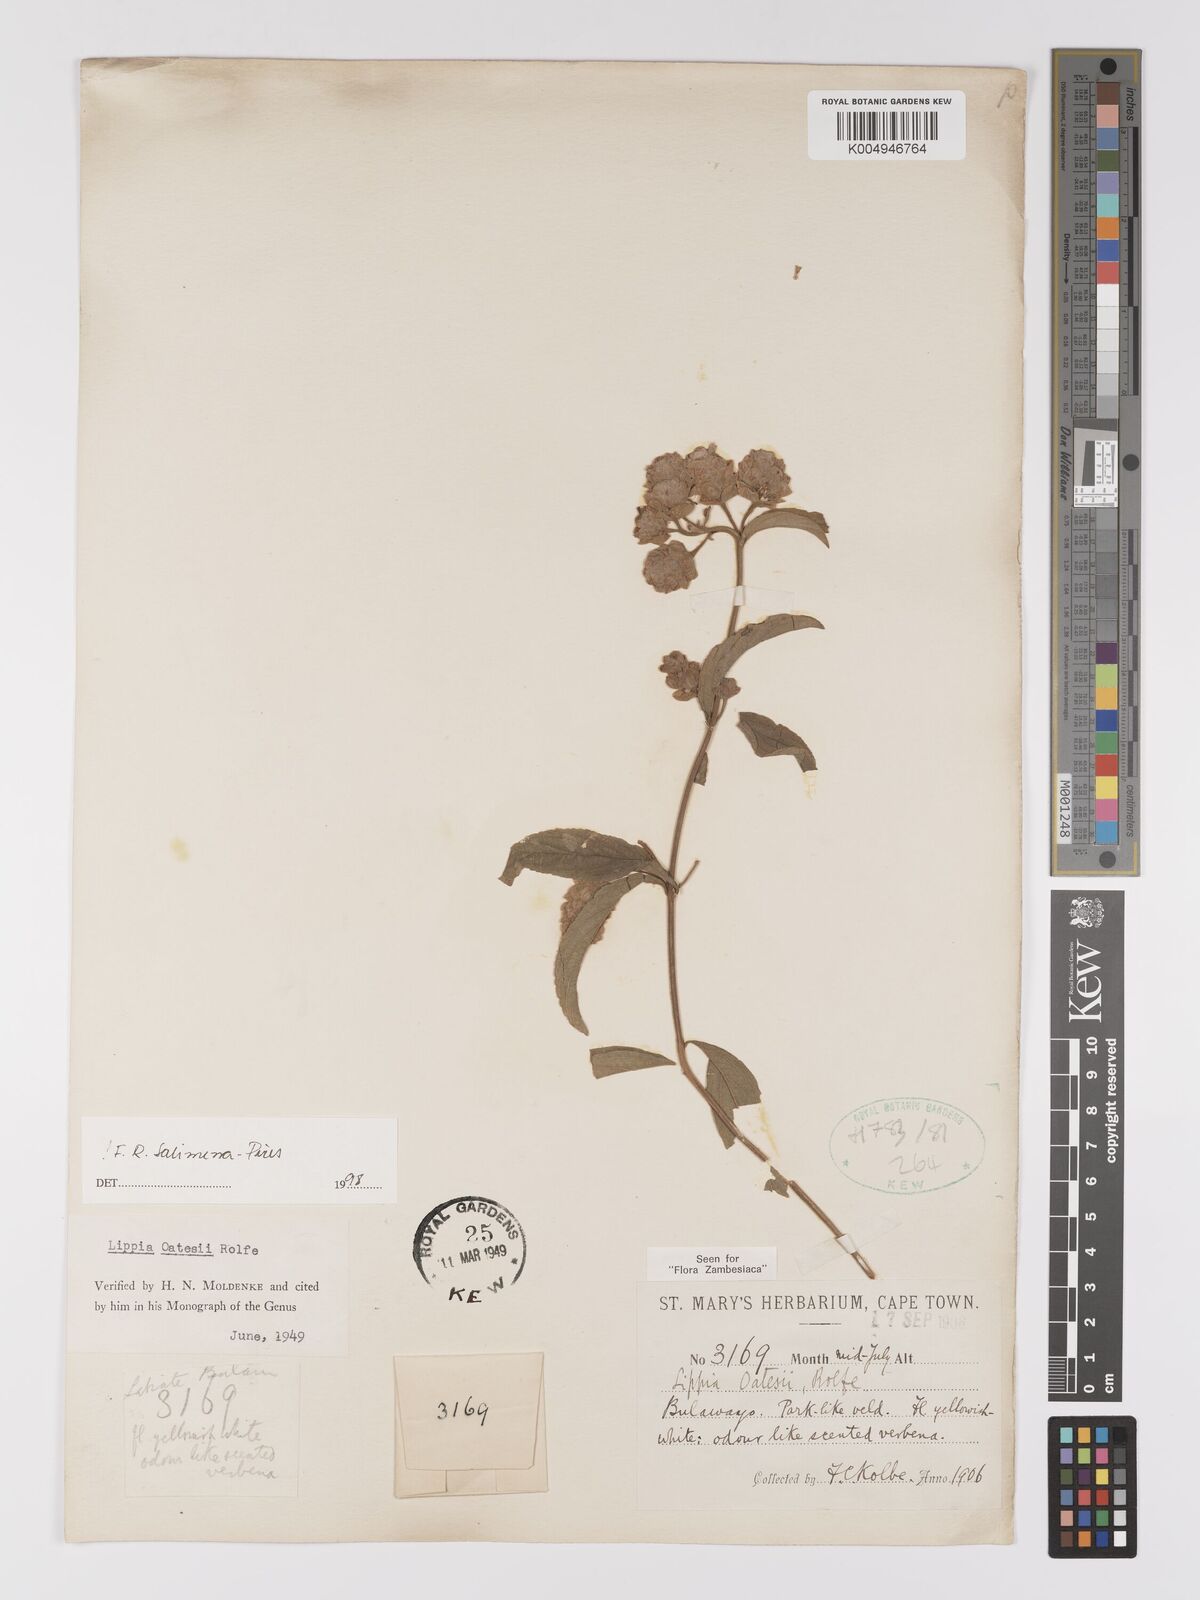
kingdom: Plantae
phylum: Tracheophyta
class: Magnoliopsida
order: Lamiales
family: Verbenaceae
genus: Lippia
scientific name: Lippia oatesii
